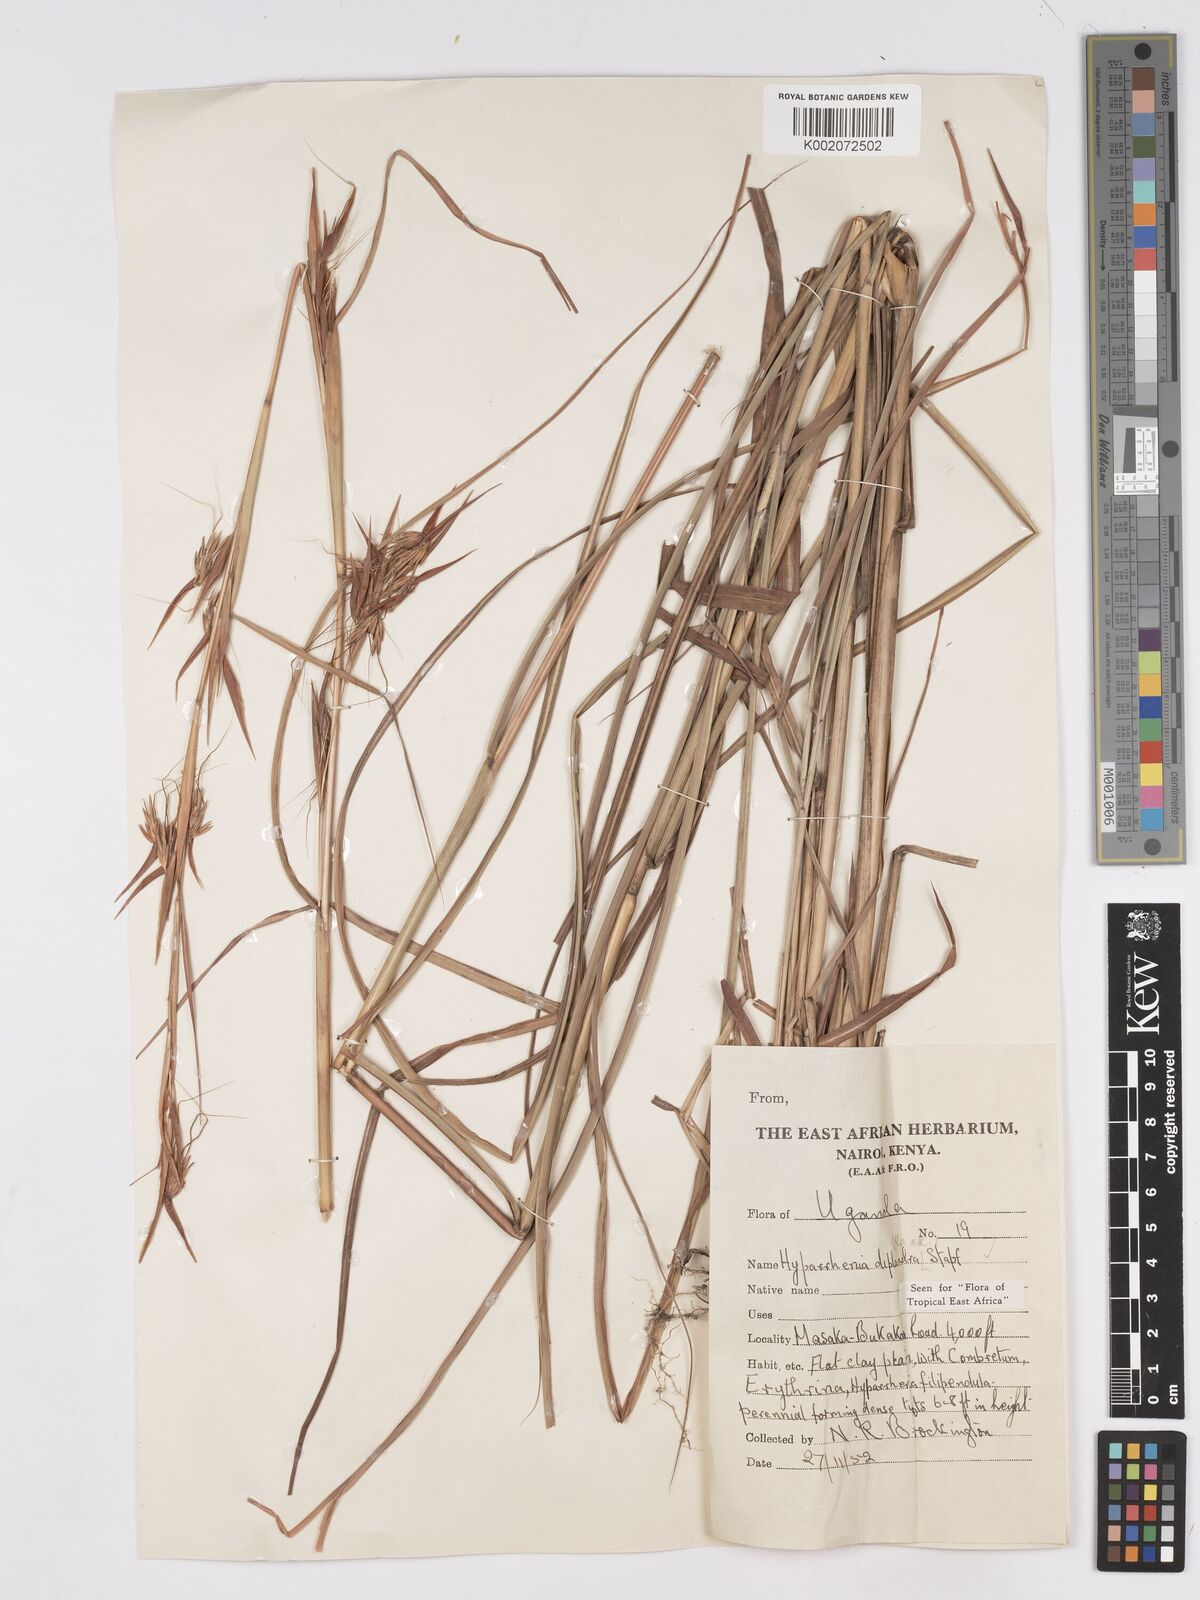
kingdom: Plantae
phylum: Tracheophyta
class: Liliopsida
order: Poales
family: Poaceae
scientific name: Poaceae
